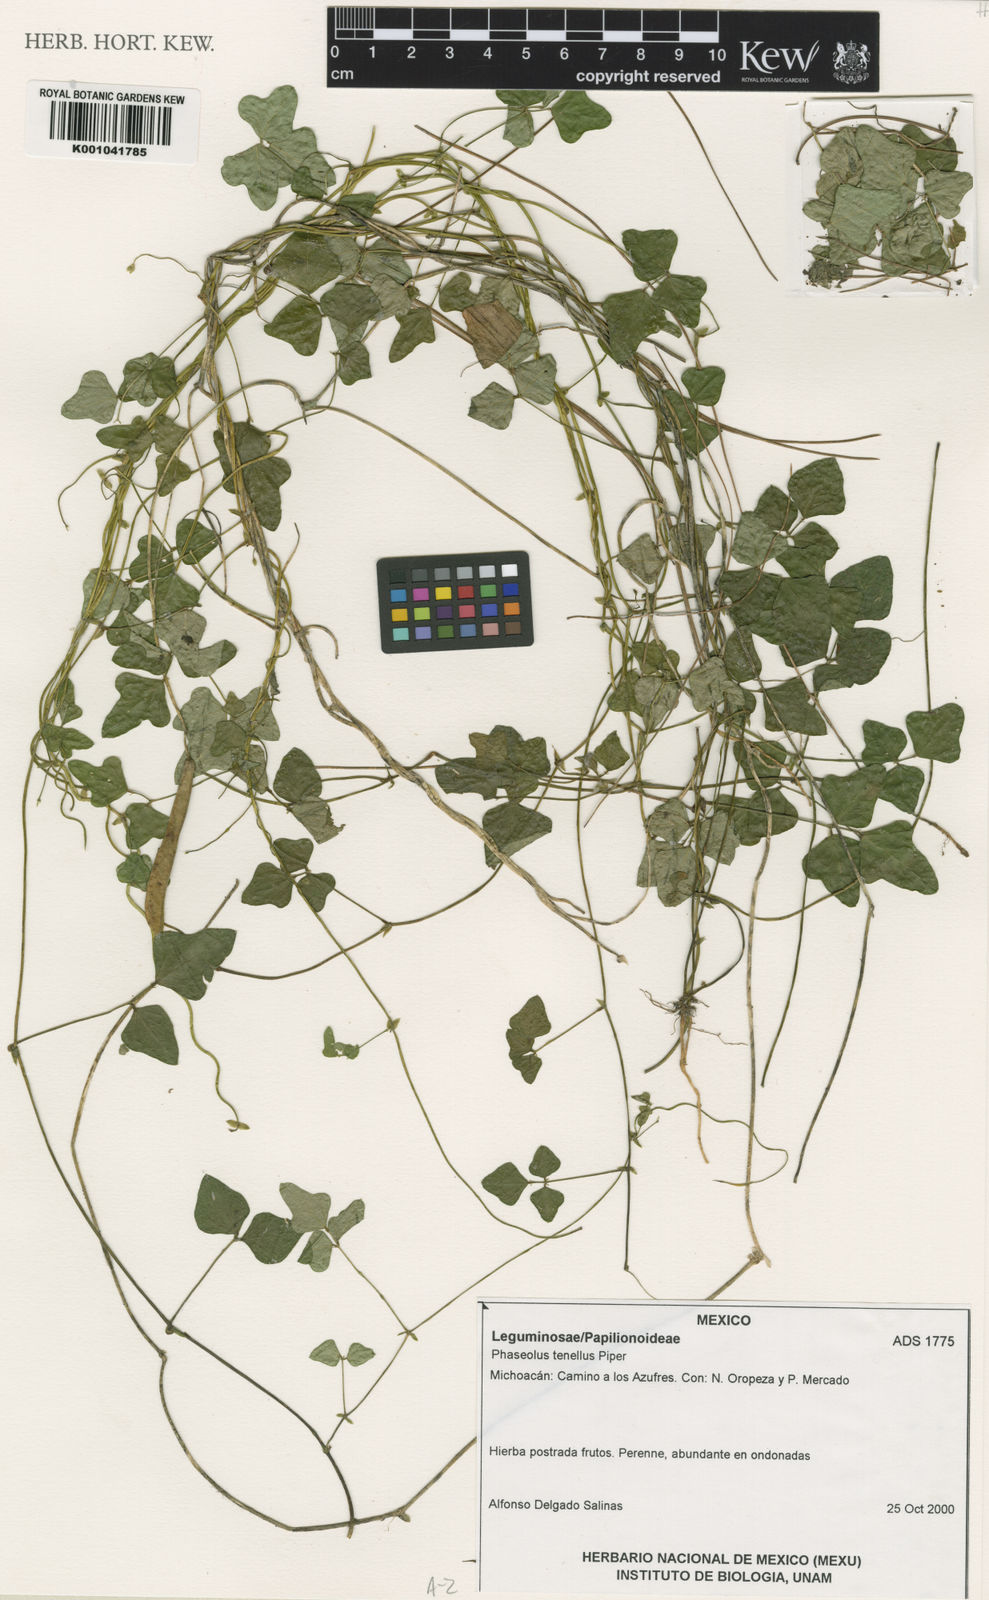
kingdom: Plantae
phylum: Tracheophyta
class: Magnoliopsida
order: Fabales
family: Fabaceae
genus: Phaseolus
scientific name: Phaseolus tenellus
